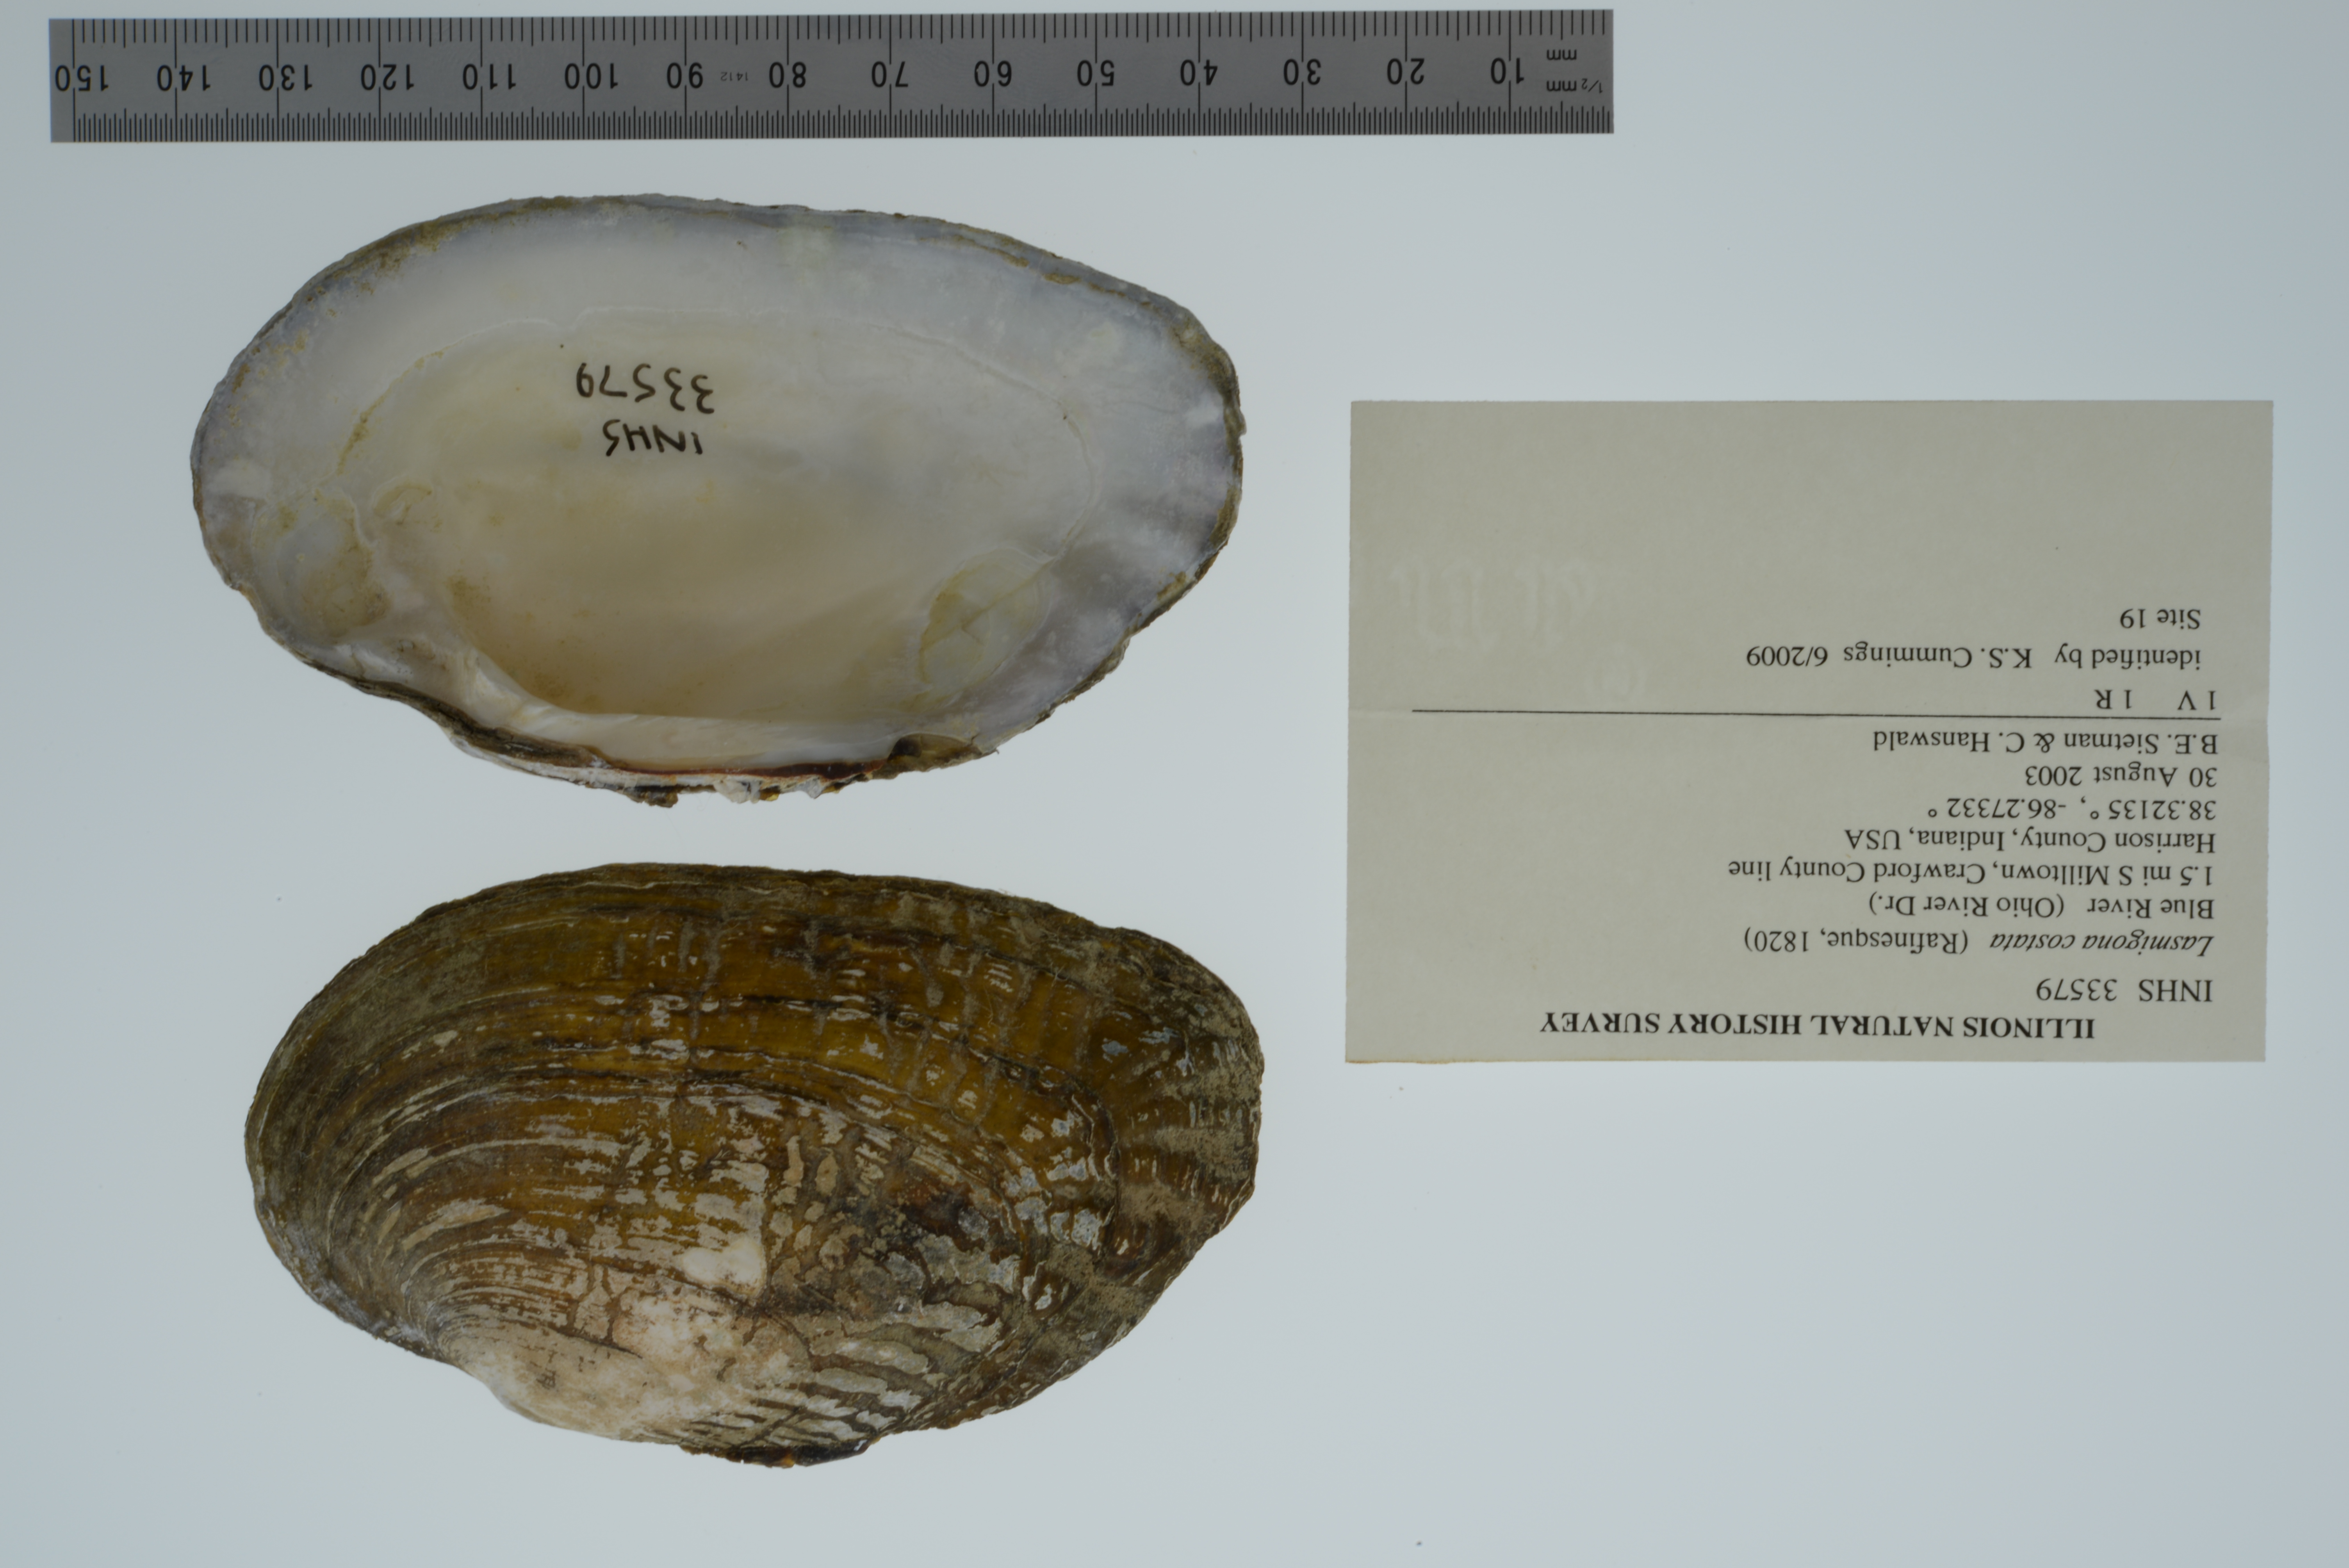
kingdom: Animalia
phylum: Mollusca
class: Bivalvia
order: Unionida
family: Unionidae
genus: Lasmigona
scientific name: Lasmigona costata
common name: Flutedshell
